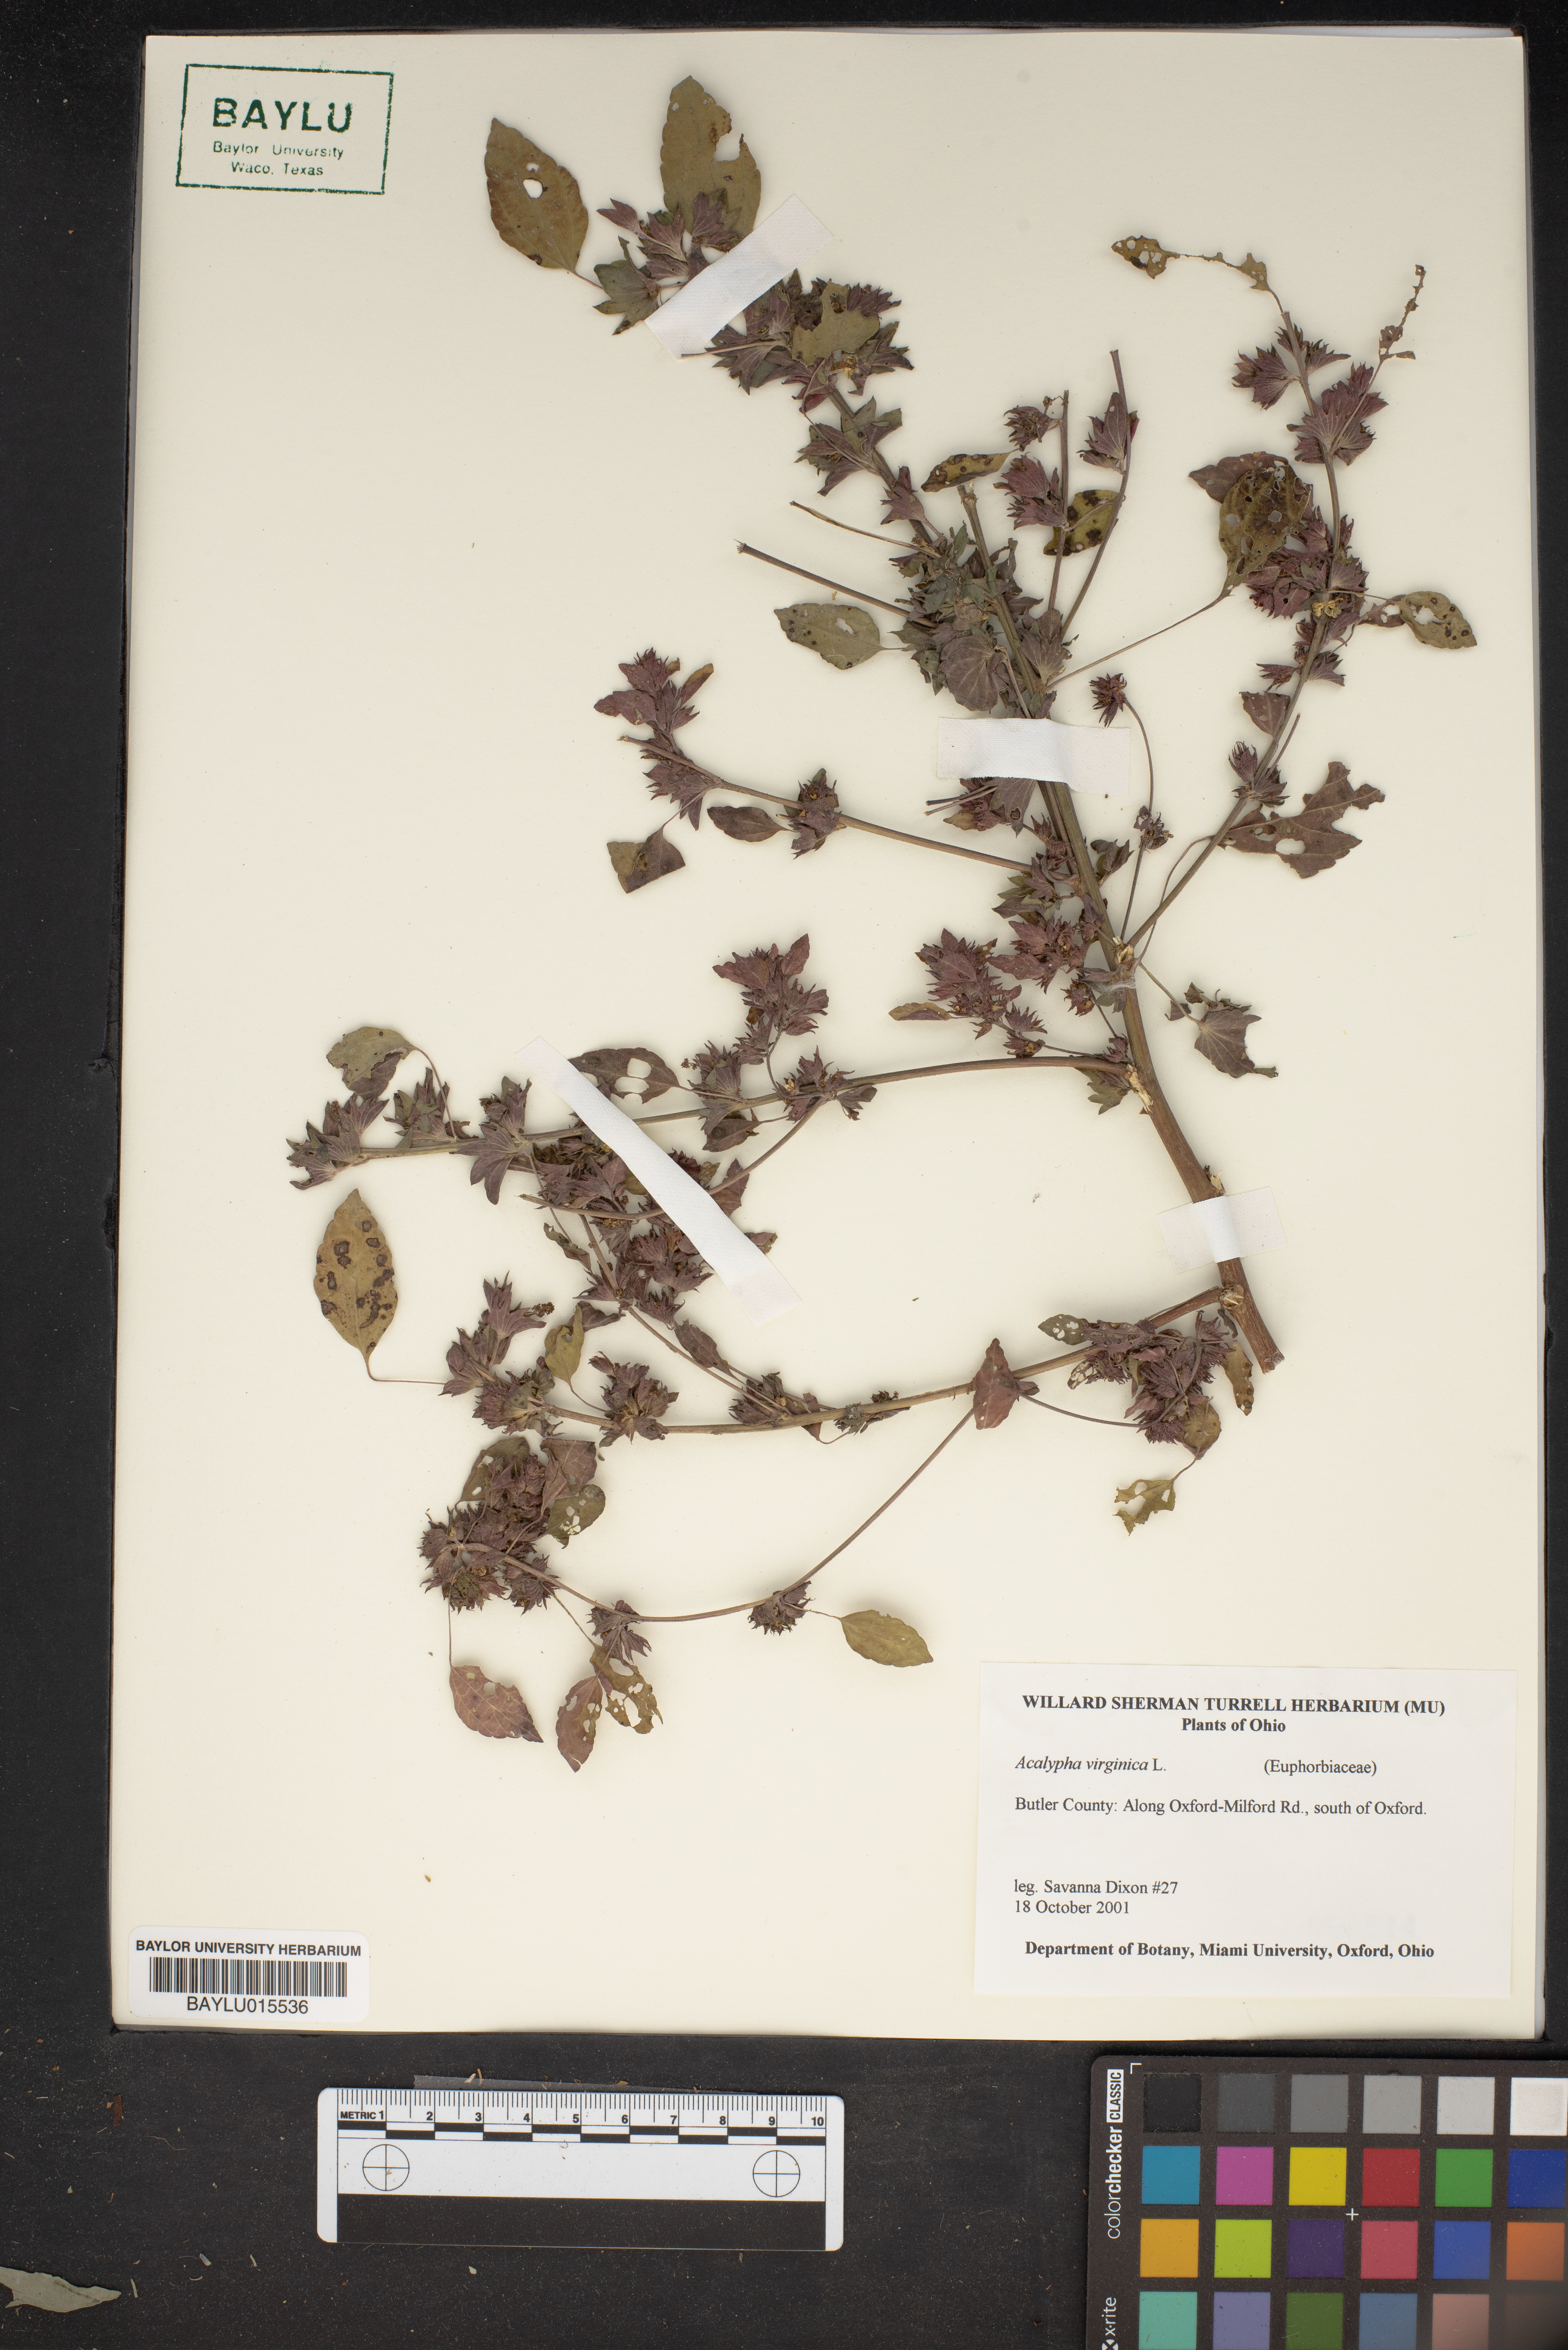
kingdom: Plantae
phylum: Tracheophyta
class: Magnoliopsida
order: Malpighiales
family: Euphorbiaceae
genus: Acalypha
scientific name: Acalypha virginica
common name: Virginia copperleaf
